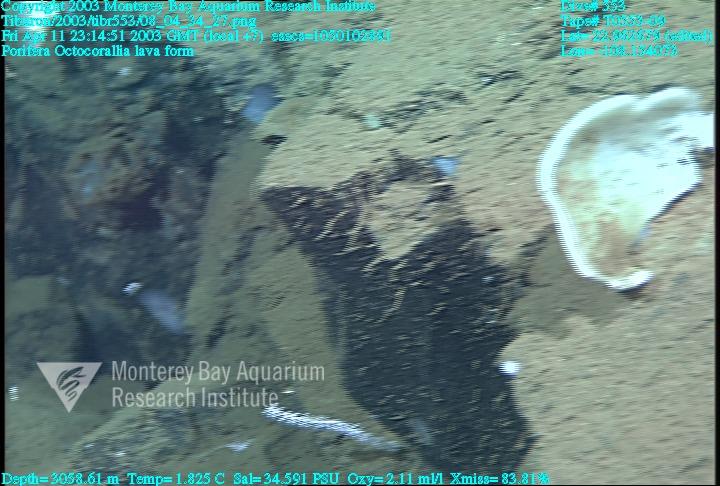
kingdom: Animalia
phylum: Porifera
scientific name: Porifera
